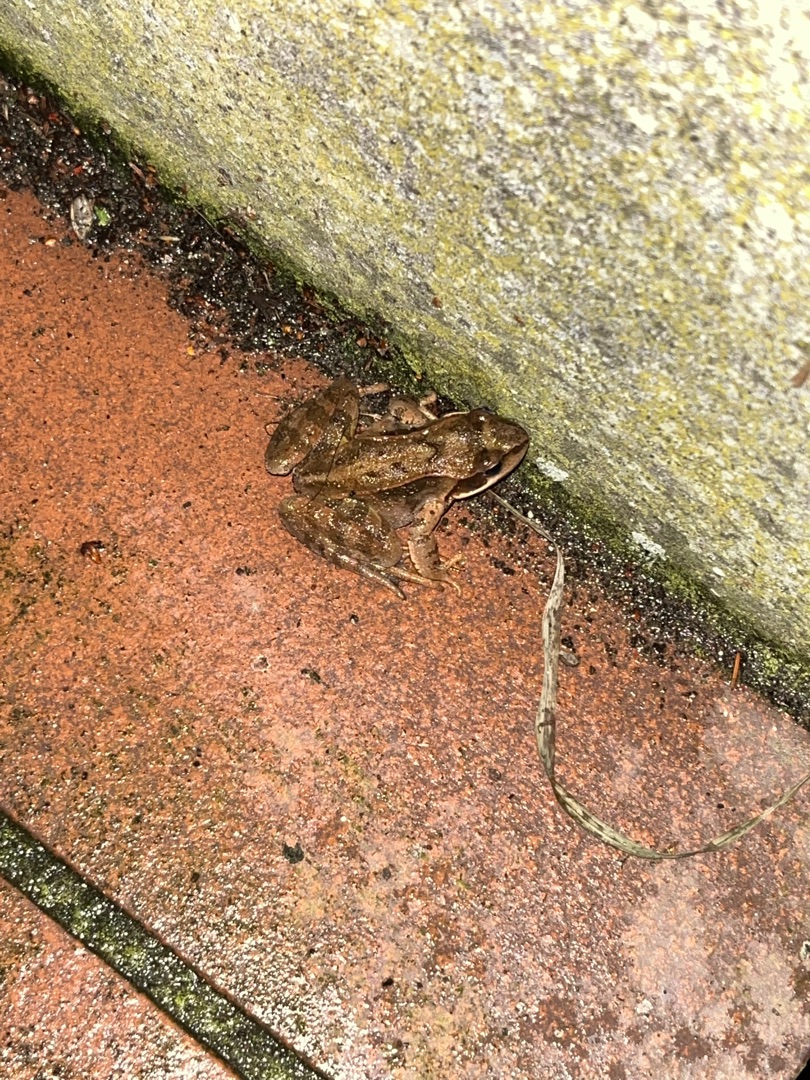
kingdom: Animalia
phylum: Chordata
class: Amphibia
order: Anura
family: Ranidae
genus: Rana
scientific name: Rana temporaria
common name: Butsnudet frø
